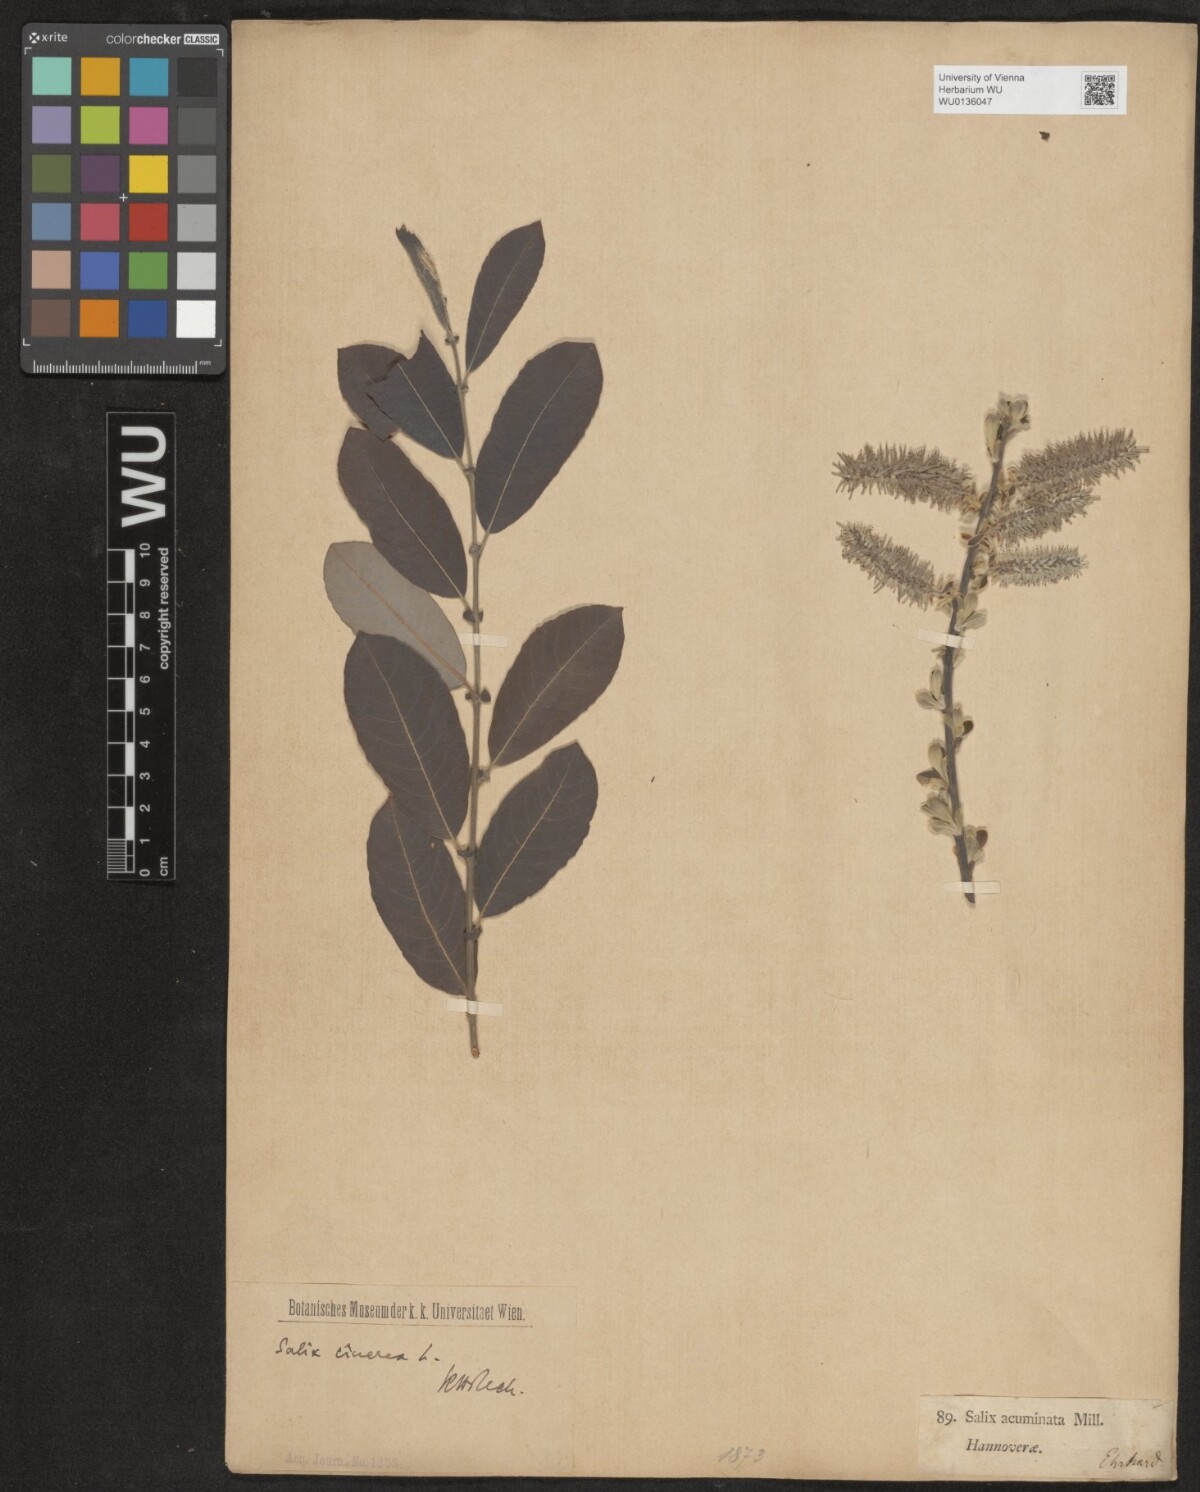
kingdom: Plantae
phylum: Tracheophyta
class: Magnoliopsida
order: Malpighiales
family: Salicaceae
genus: Salix
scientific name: Salix cinerea
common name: Common sallow
